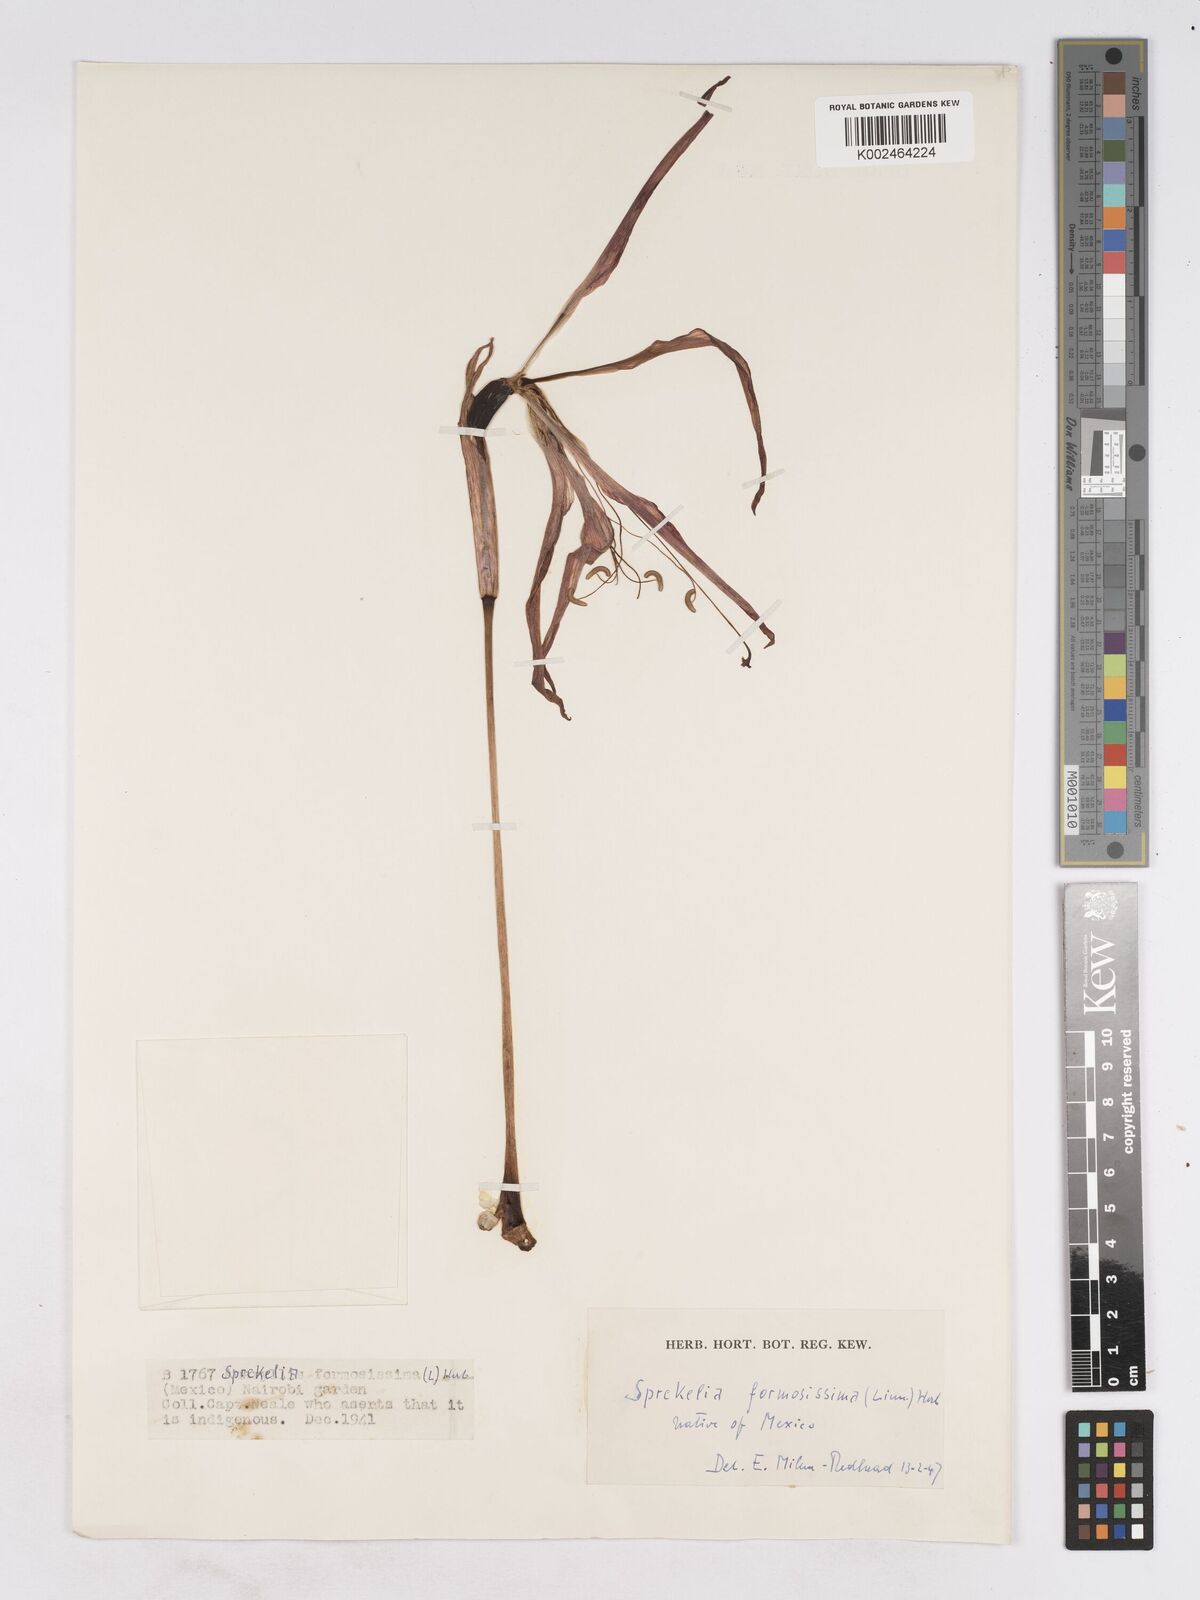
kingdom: Plantae
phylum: Tracheophyta
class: Liliopsida
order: Asparagales
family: Amaryllidaceae
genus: Sprekelia
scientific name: Sprekelia formosissima
